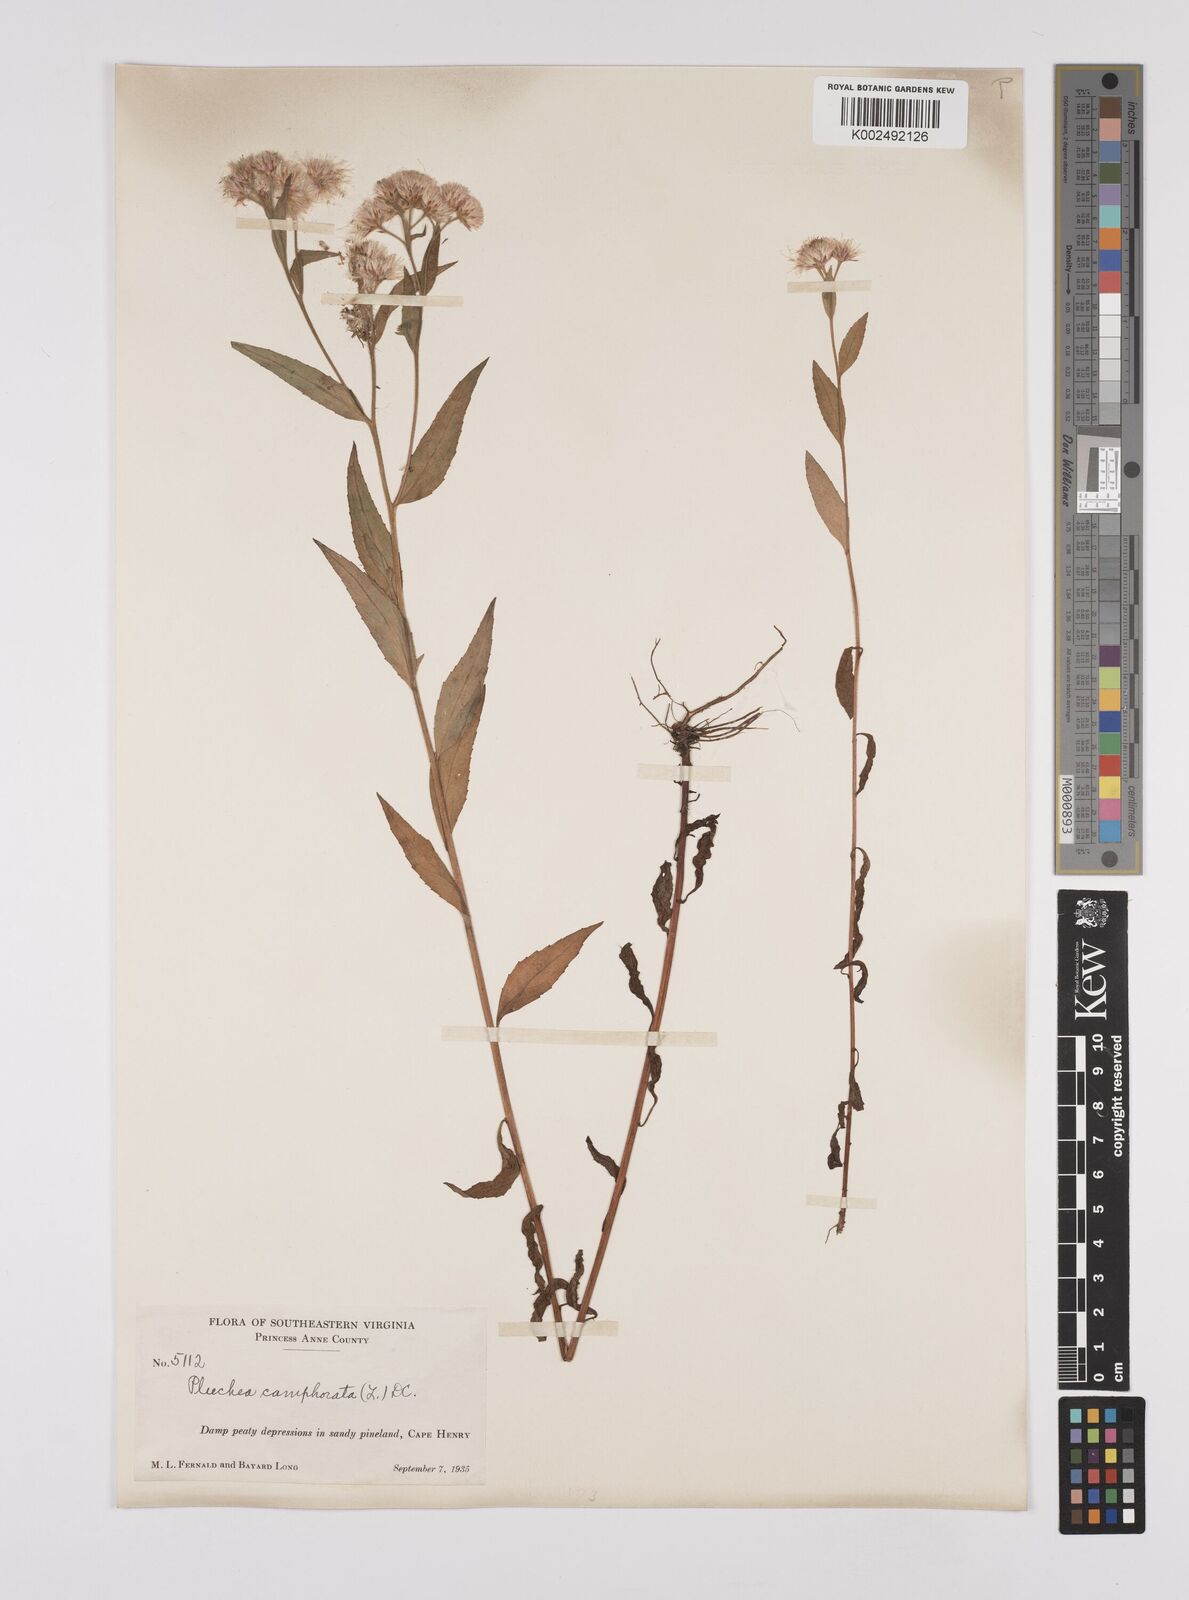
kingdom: Plantae
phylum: Tracheophyta
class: Magnoliopsida
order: Asterales
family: Asteraceae
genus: Pluchea
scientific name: Pluchea camphorata
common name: Camphor pluchea
